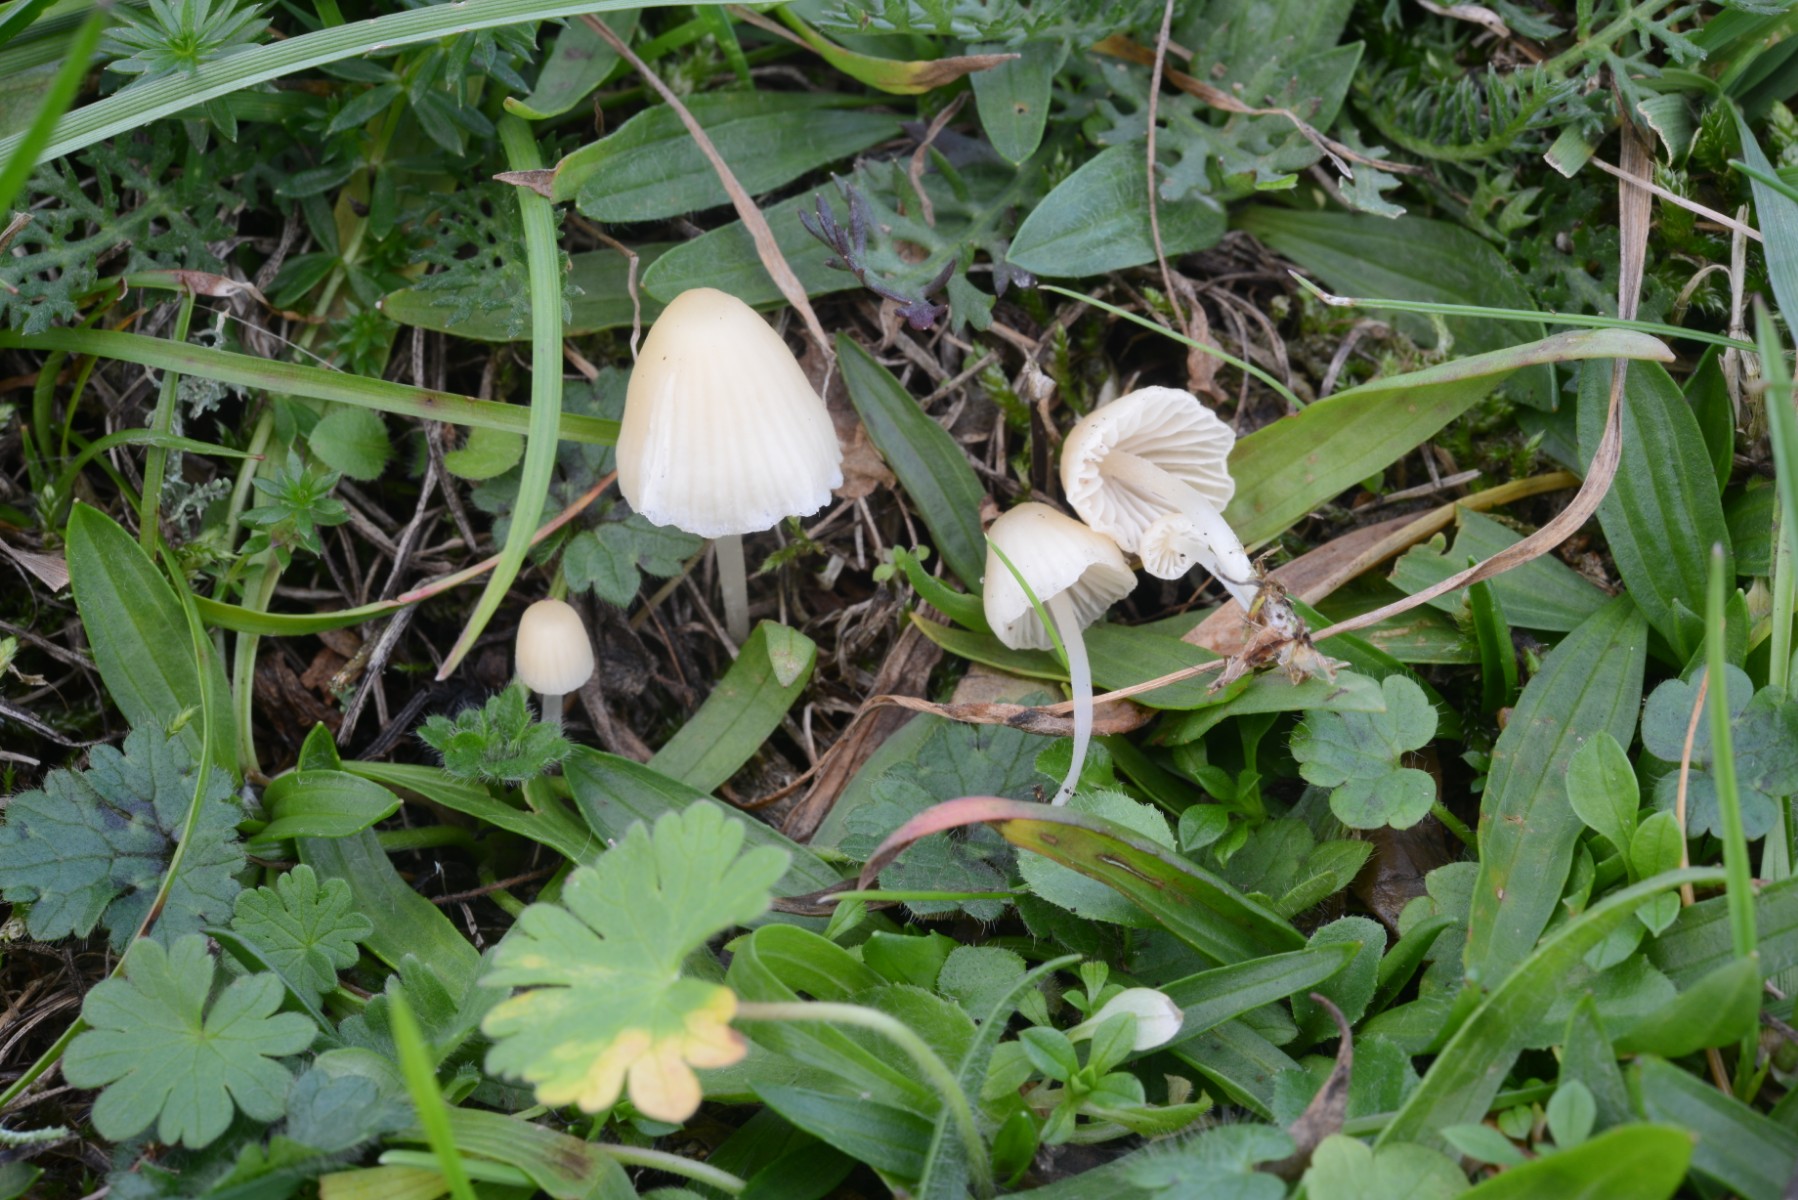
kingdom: Fungi
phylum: Basidiomycota
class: Agaricomycetes
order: Agaricales
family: Mycenaceae
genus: Atheniella
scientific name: Atheniella flavoalba
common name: gulhvid huesvamp
